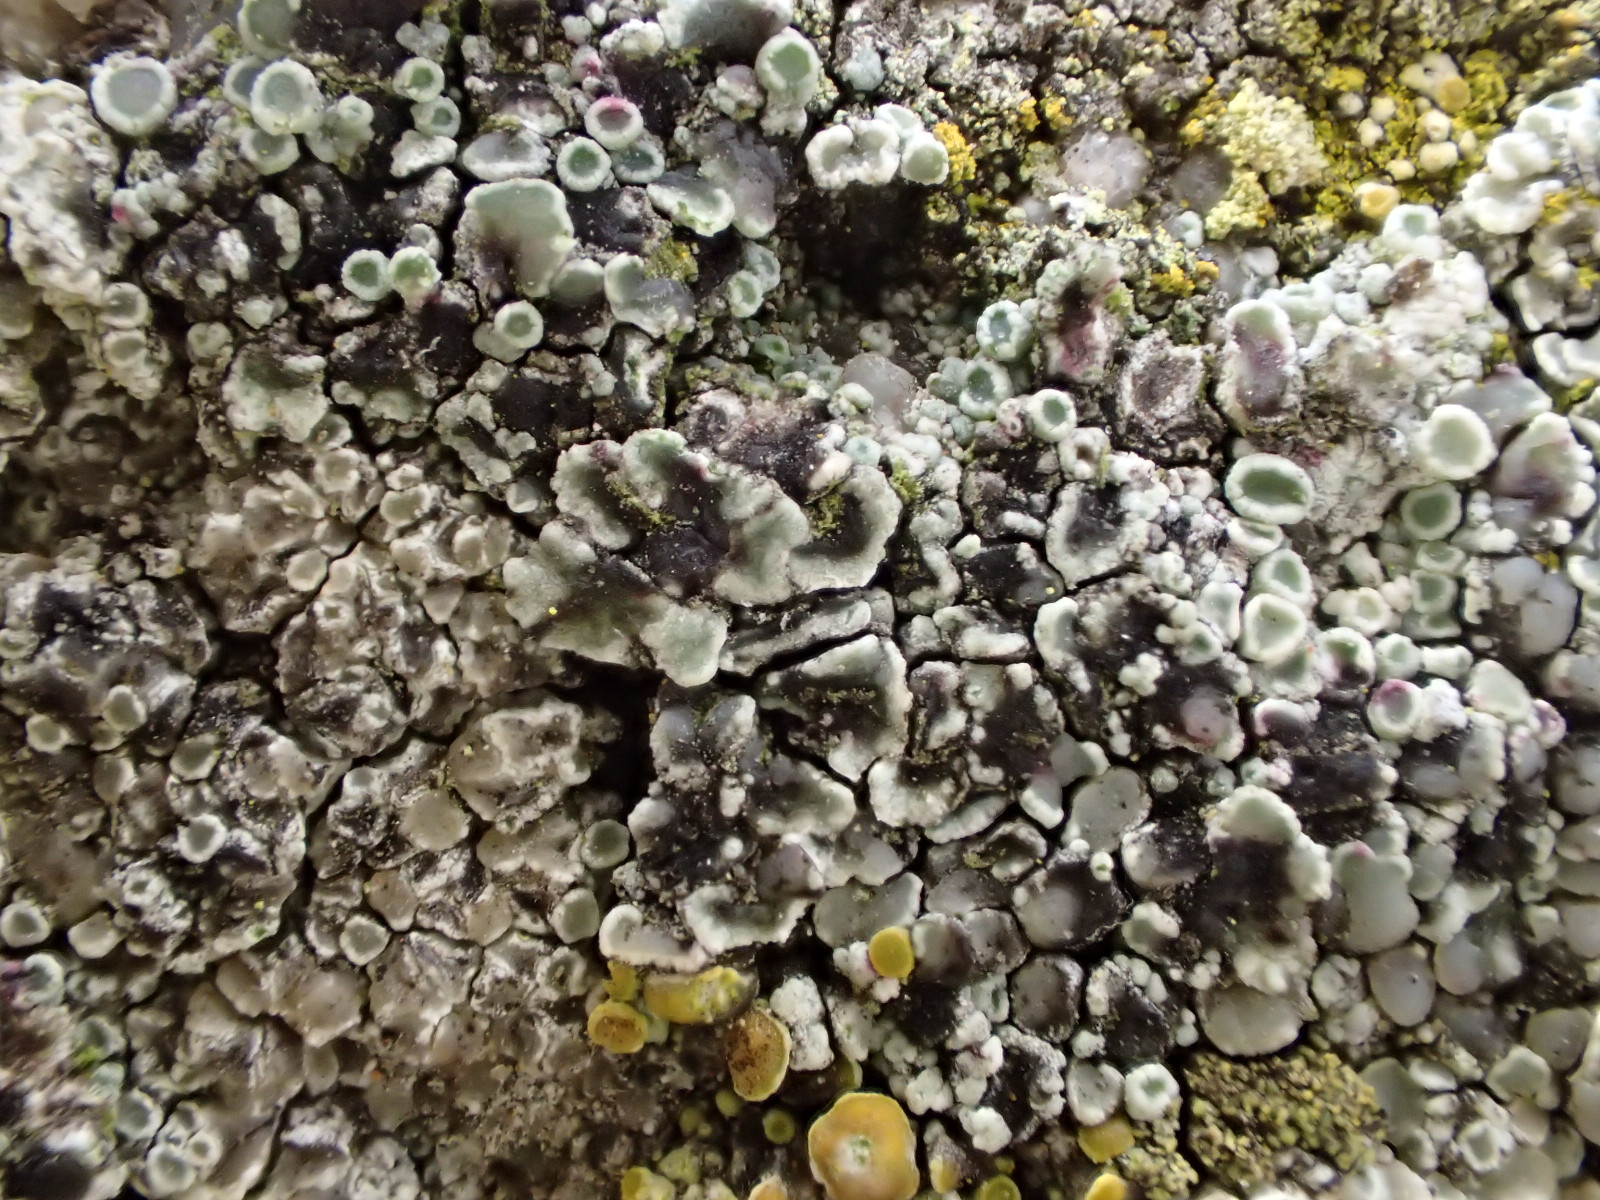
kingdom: Fungi
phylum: Ascomycota
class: Lecanoromycetes
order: Lecanorales
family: Lecanoraceae
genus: Protoparmeliopsis
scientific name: Protoparmeliopsis muralis
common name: randfliget kantskivelav
